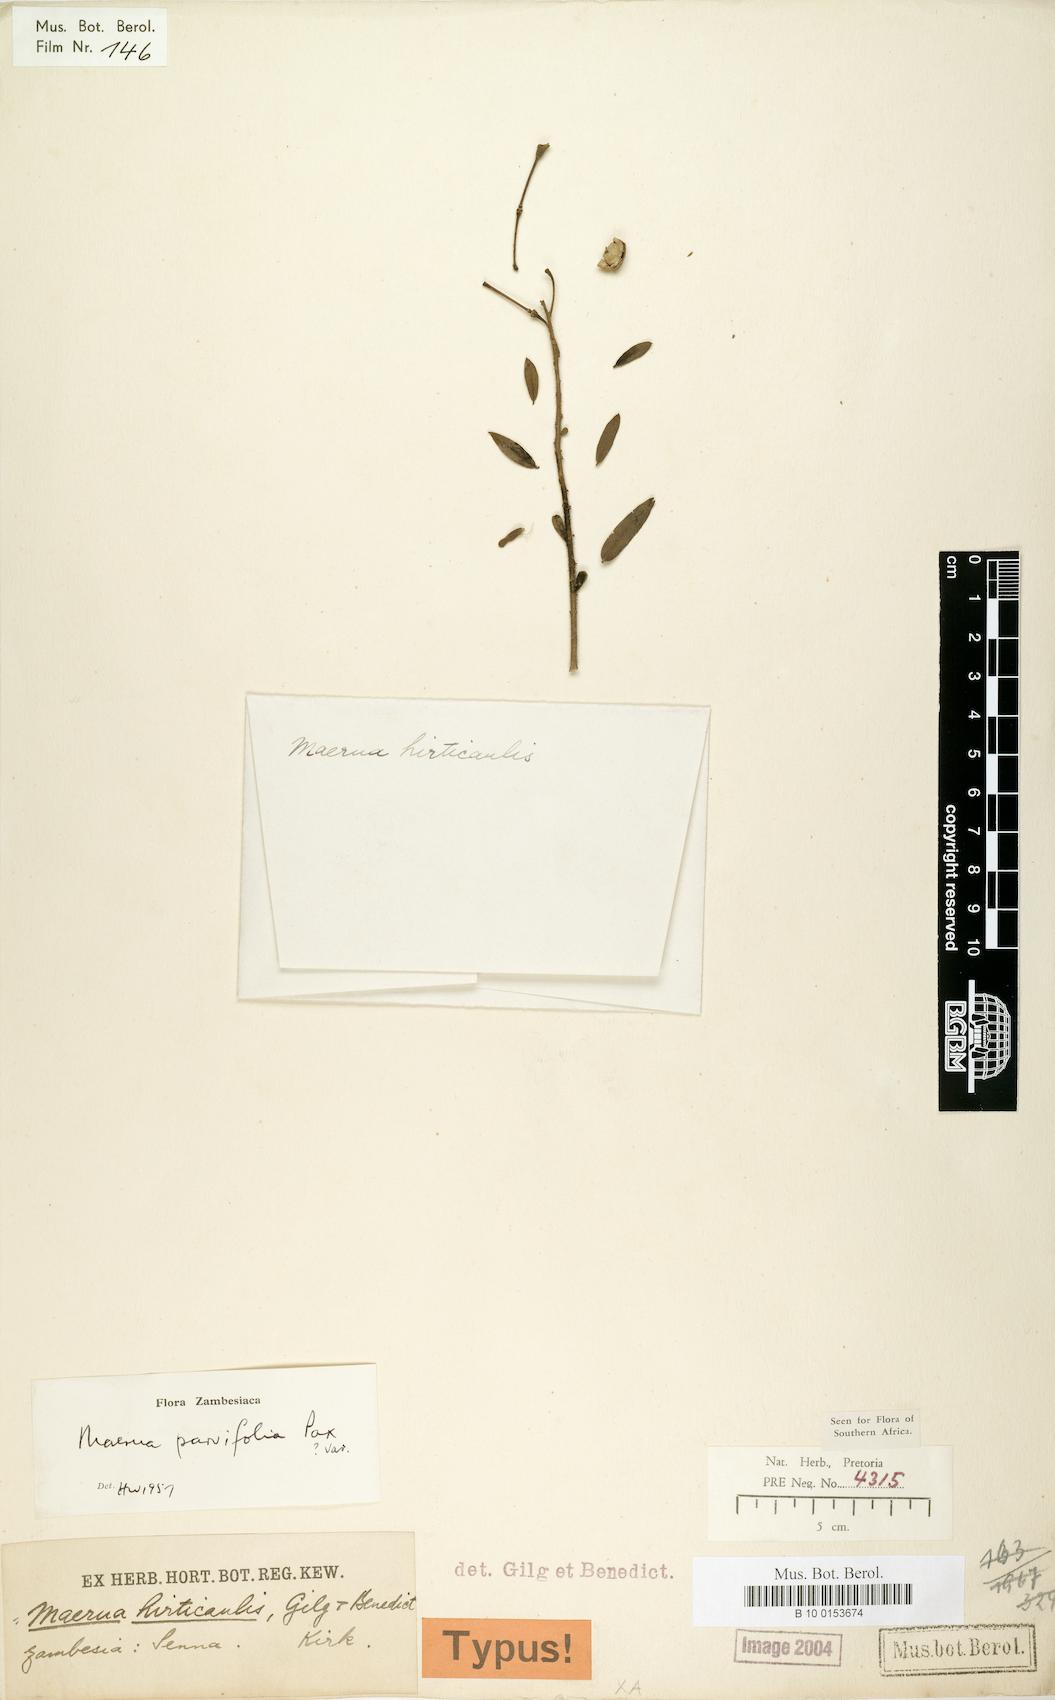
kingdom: Plantae
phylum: Tracheophyta
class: Magnoliopsida
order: Brassicales
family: Capparaceae
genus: Maerua
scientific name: Maerua parvifolia
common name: Dwarf bush-cherry
